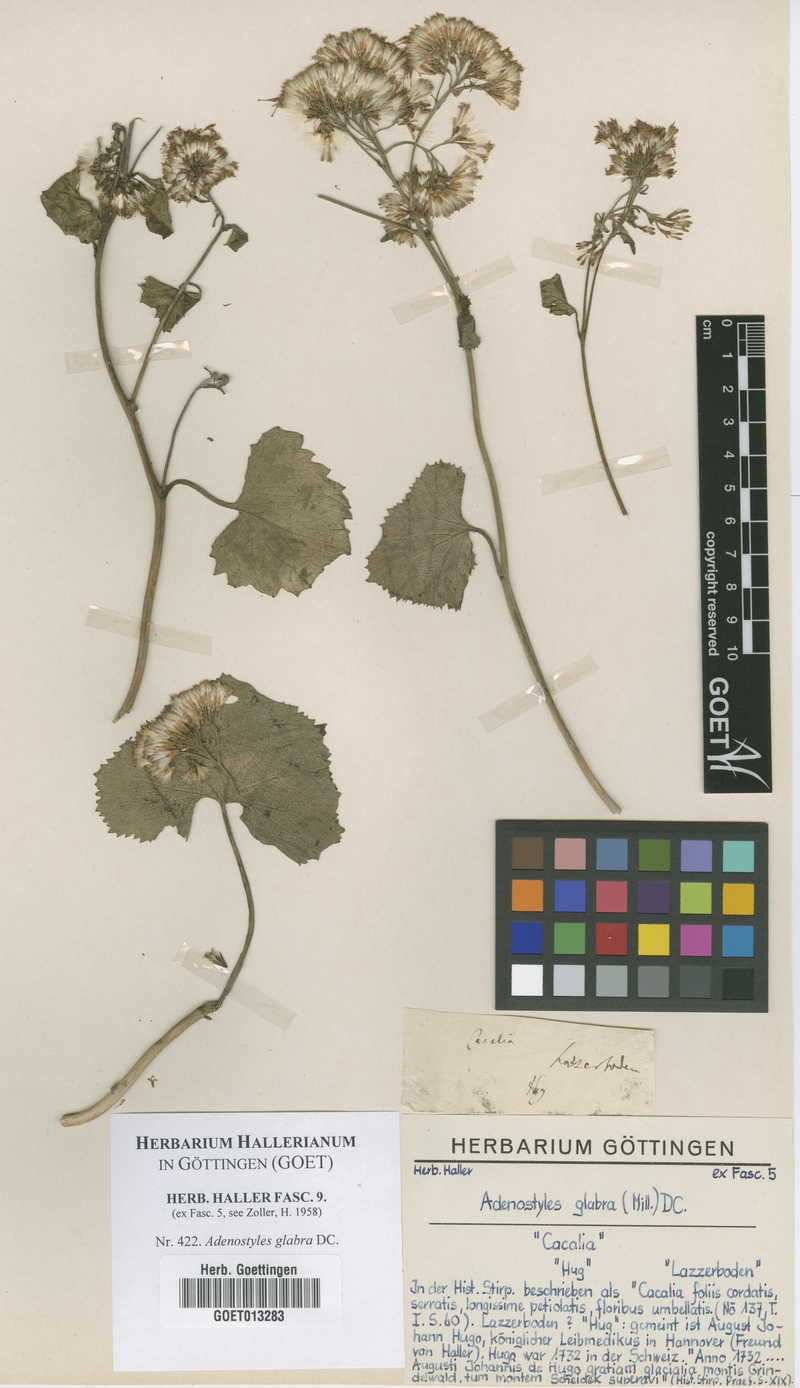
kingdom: Plantae
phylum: Tracheophyta
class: Magnoliopsida
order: Asterales
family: Asteraceae
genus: Adenostyles
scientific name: Adenostyles alpina
